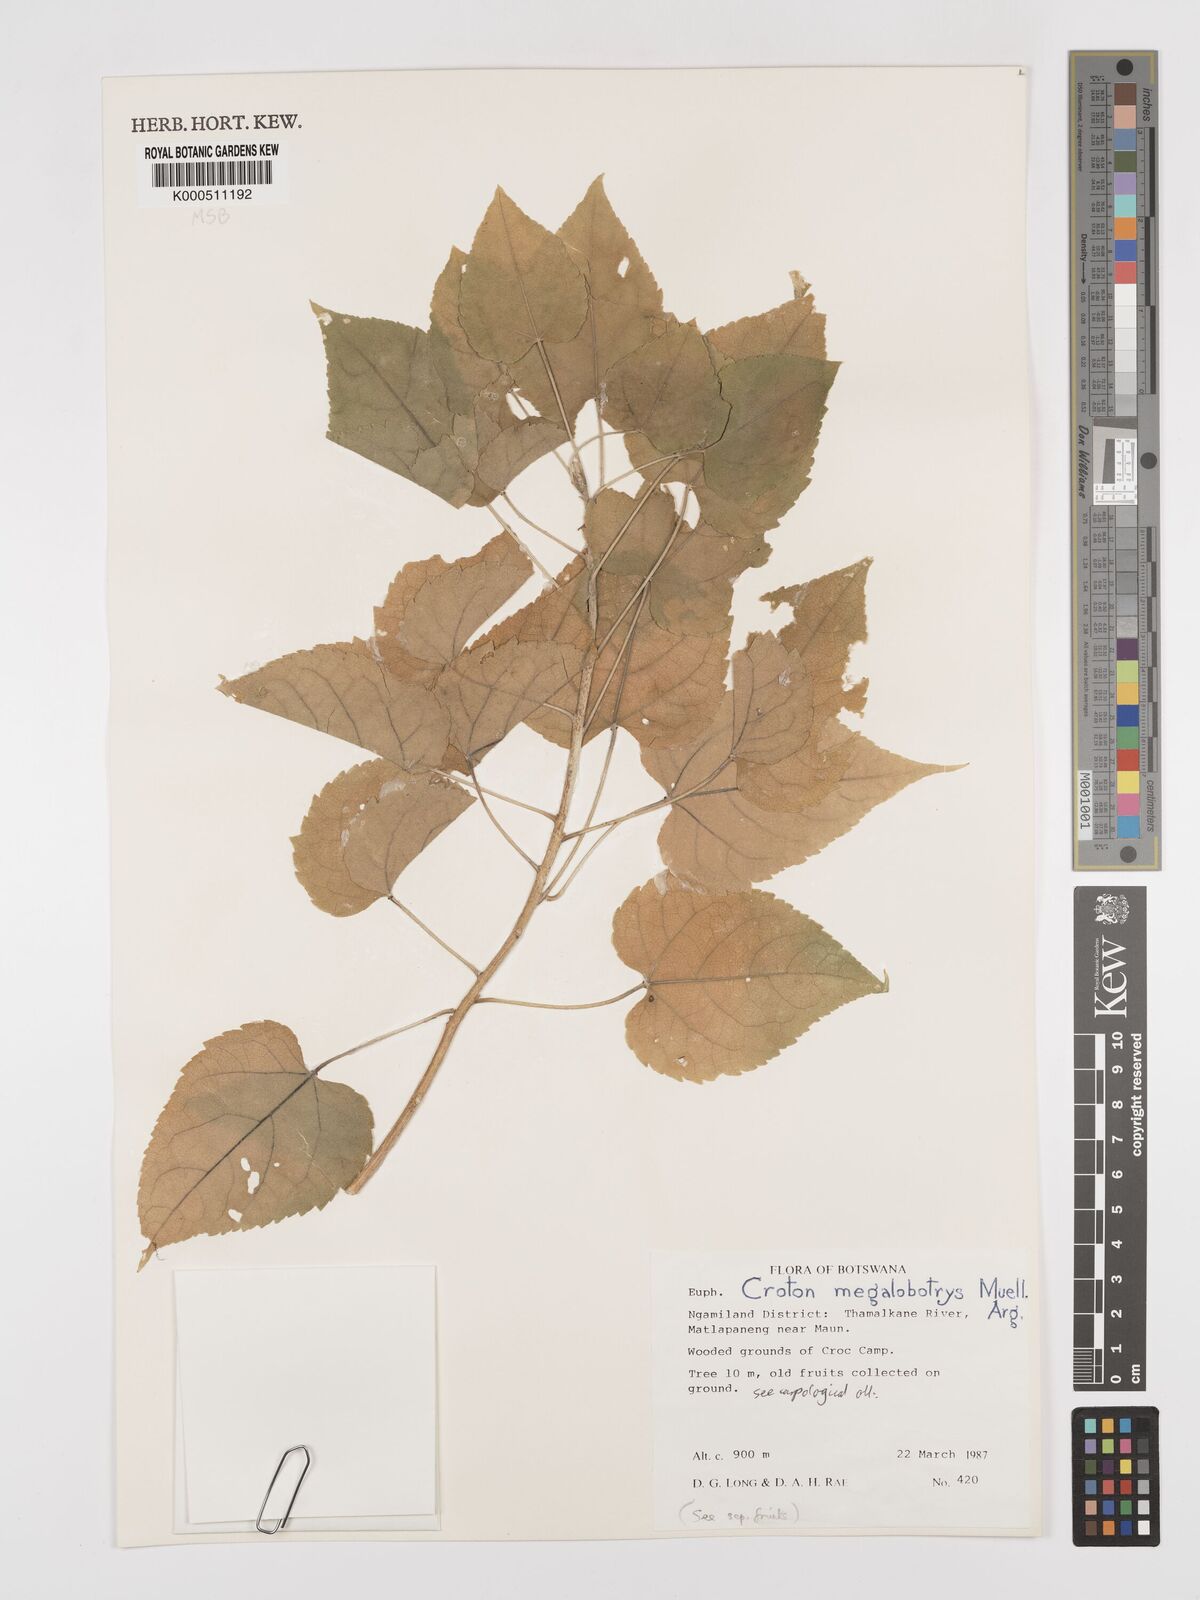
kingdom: Plantae
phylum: Tracheophyta
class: Magnoliopsida
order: Malpighiales
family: Euphorbiaceae
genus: Croton
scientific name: Croton
